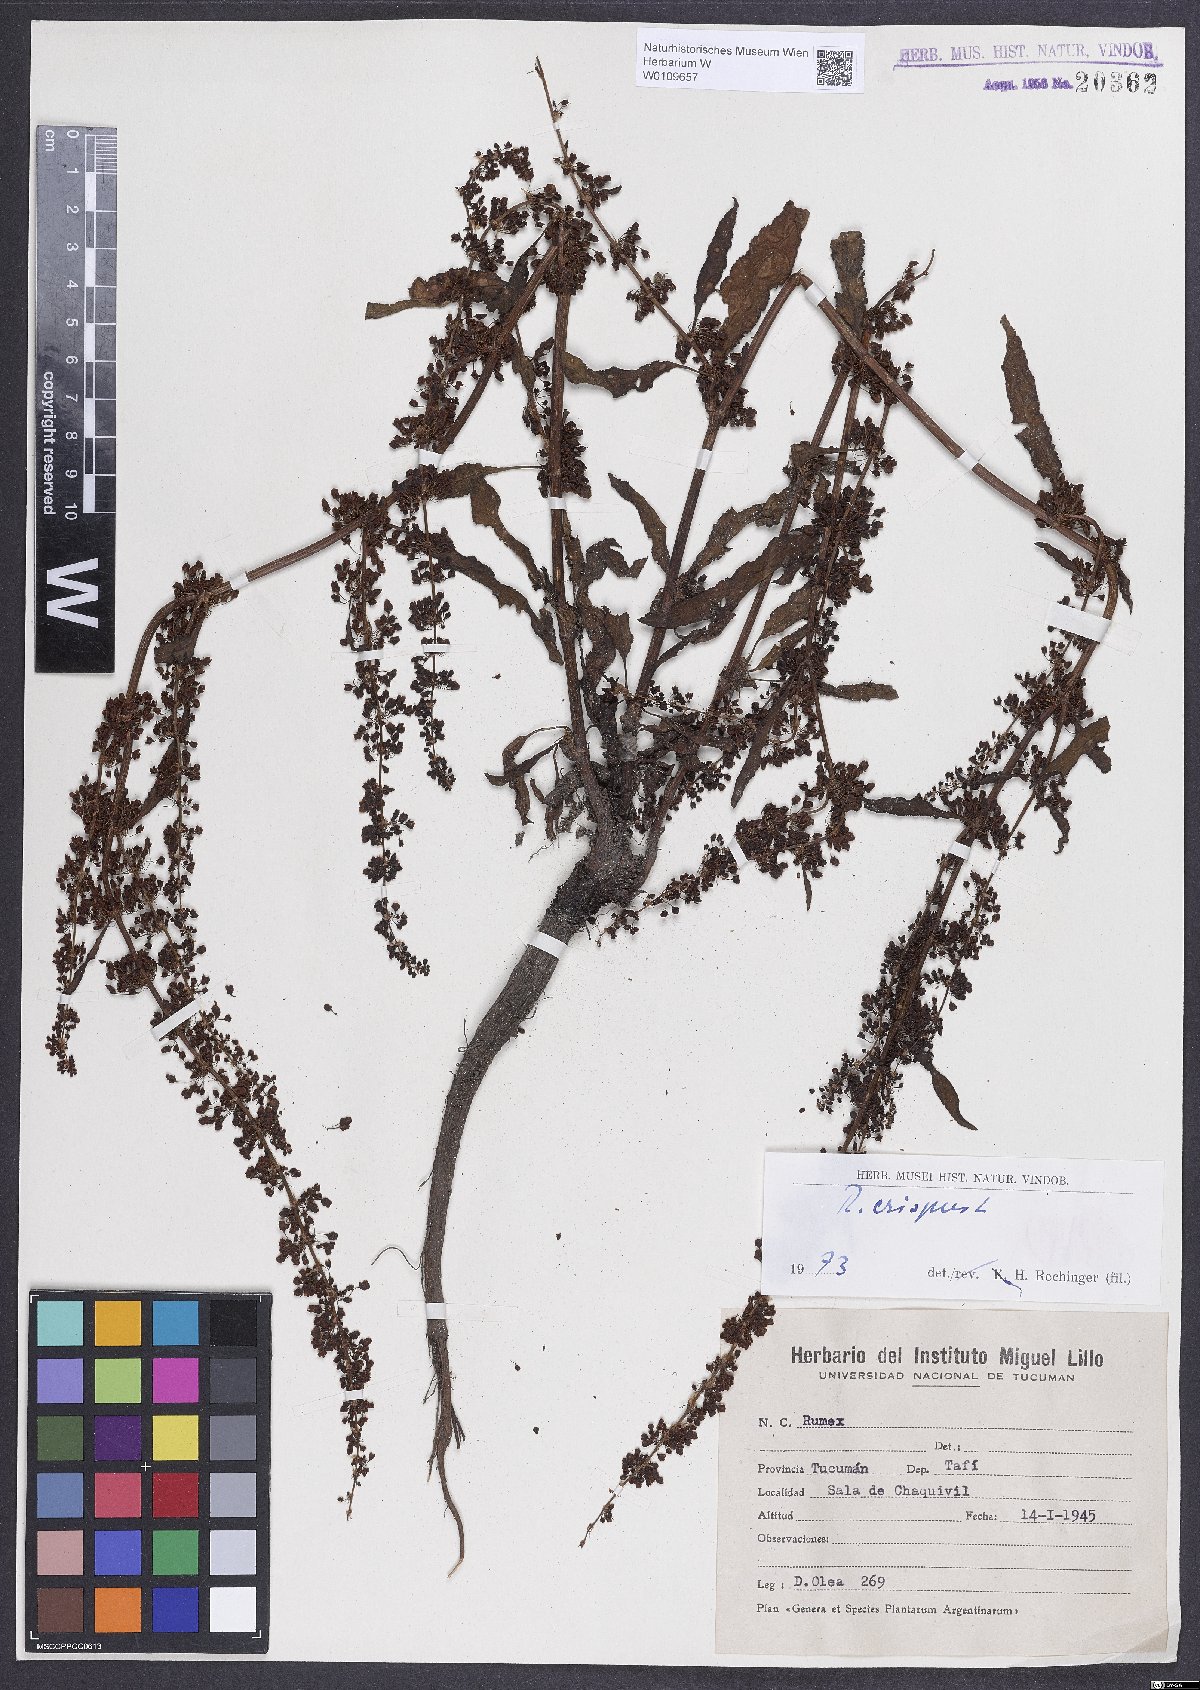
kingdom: Plantae
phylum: Tracheophyta
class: Magnoliopsida
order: Caryophyllales
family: Polygonaceae
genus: Rumex
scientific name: Rumex crispus
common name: Curled dock
